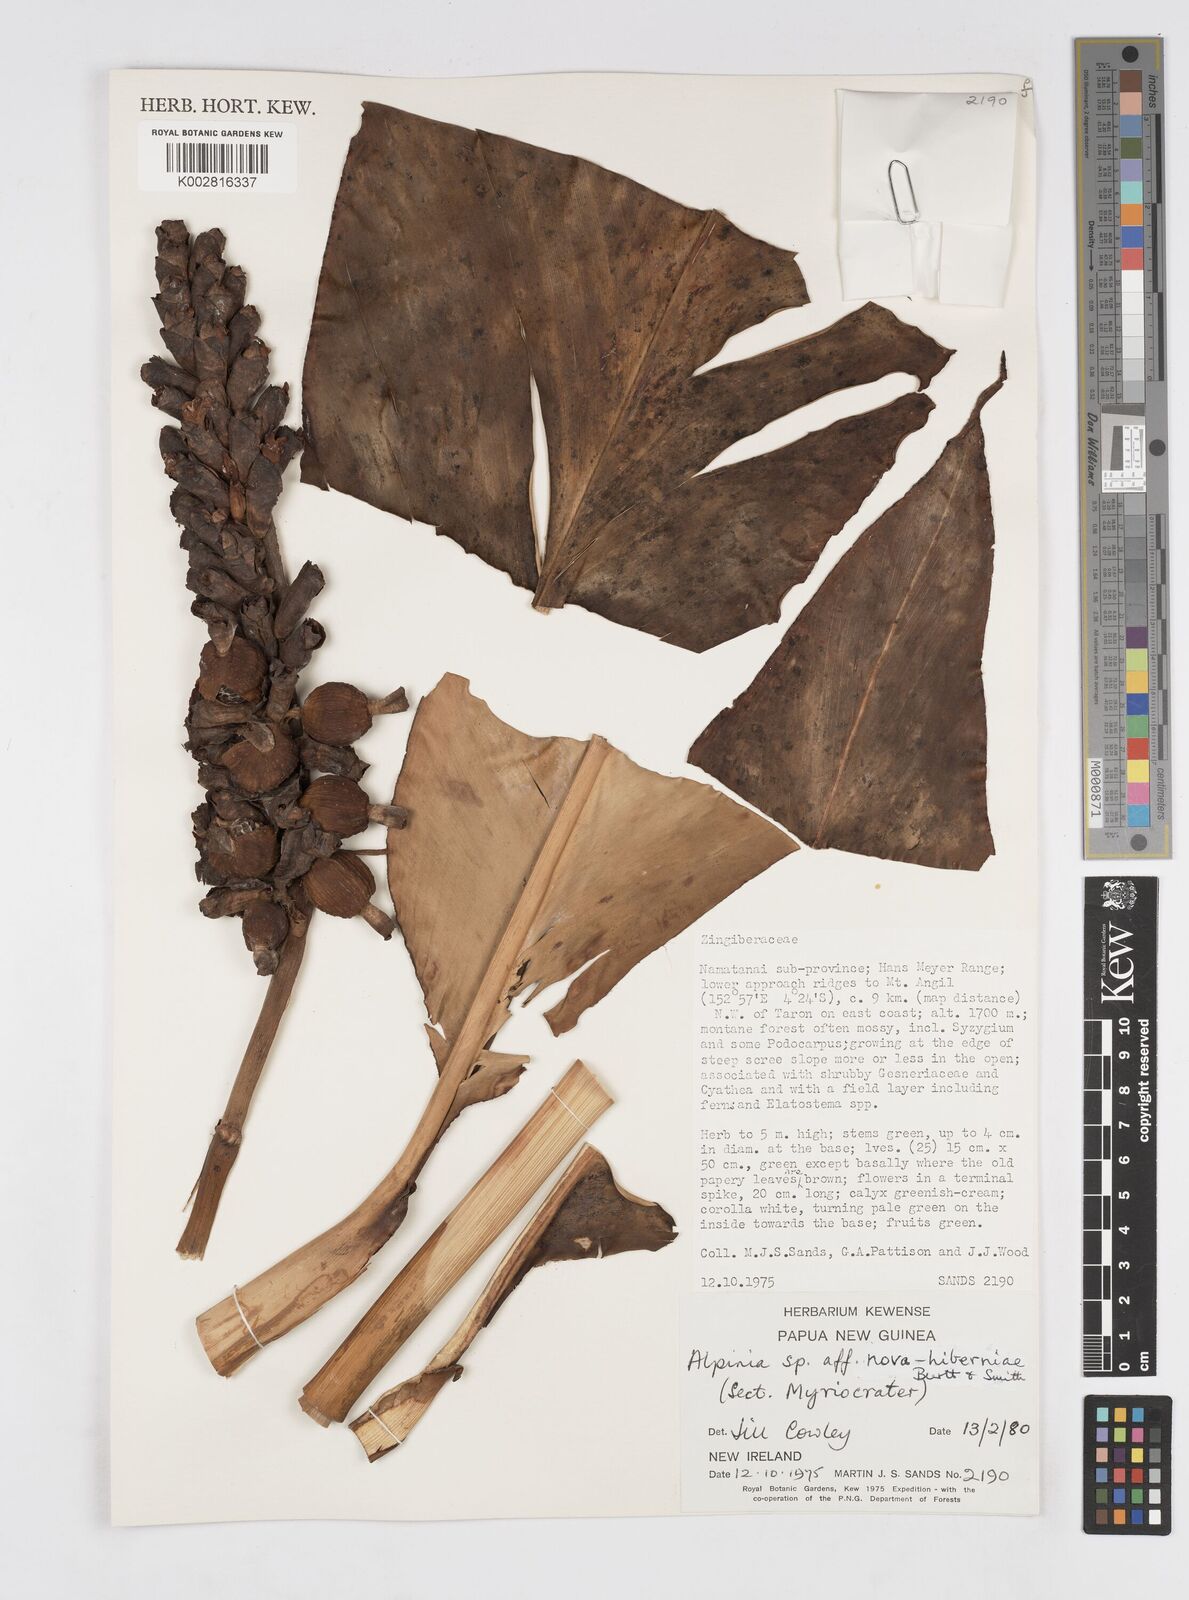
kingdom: Plantae
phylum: Tracheophyta
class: Liliopsida
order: Zingiberales
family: Zingiberaceae
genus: Alpinia
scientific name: Alpinia novae-hiberniae
